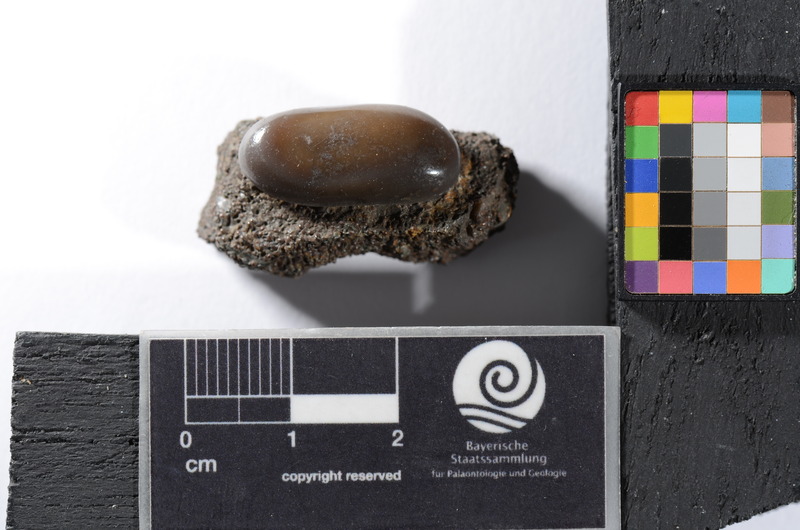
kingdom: Animalia
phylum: Chordata
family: Pycnodontidae
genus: Pycnodus
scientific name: Pycnodus
